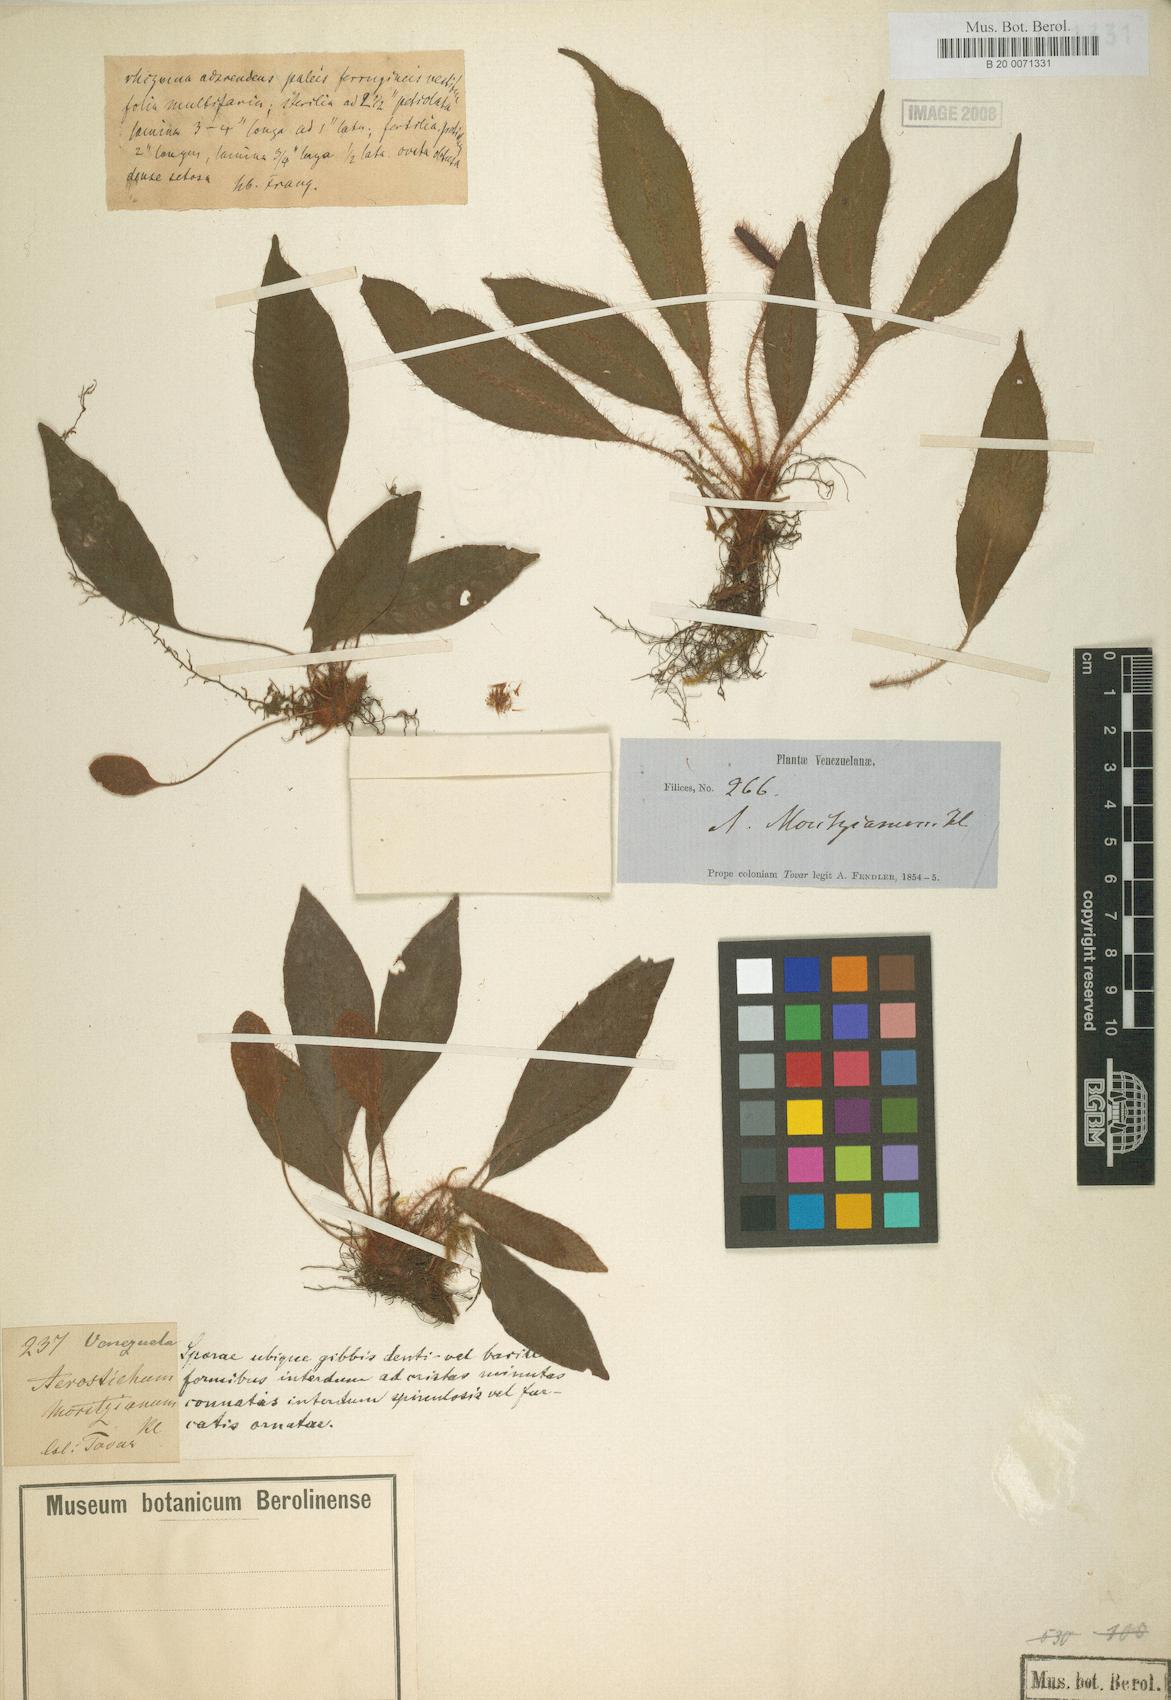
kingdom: Plantae
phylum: Tracheophyta
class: Polypodiopsida
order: Polypodiales
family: Dryopteridaceae
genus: Elaphoglossum
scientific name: Elaphoglossum moritzianum
